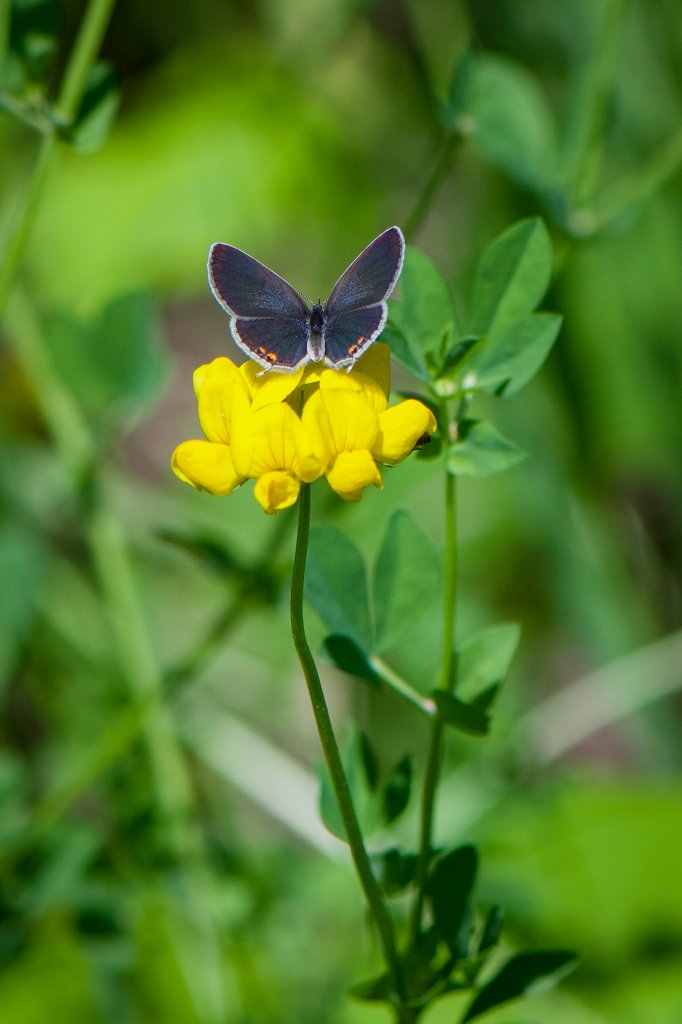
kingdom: Animalia
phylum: Arthropoda
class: Insecta
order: Lepidoptera
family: Lycaenidae
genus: Elkalyce
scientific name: Elkalyce comyntas
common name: Eastern Tailed-Blue
